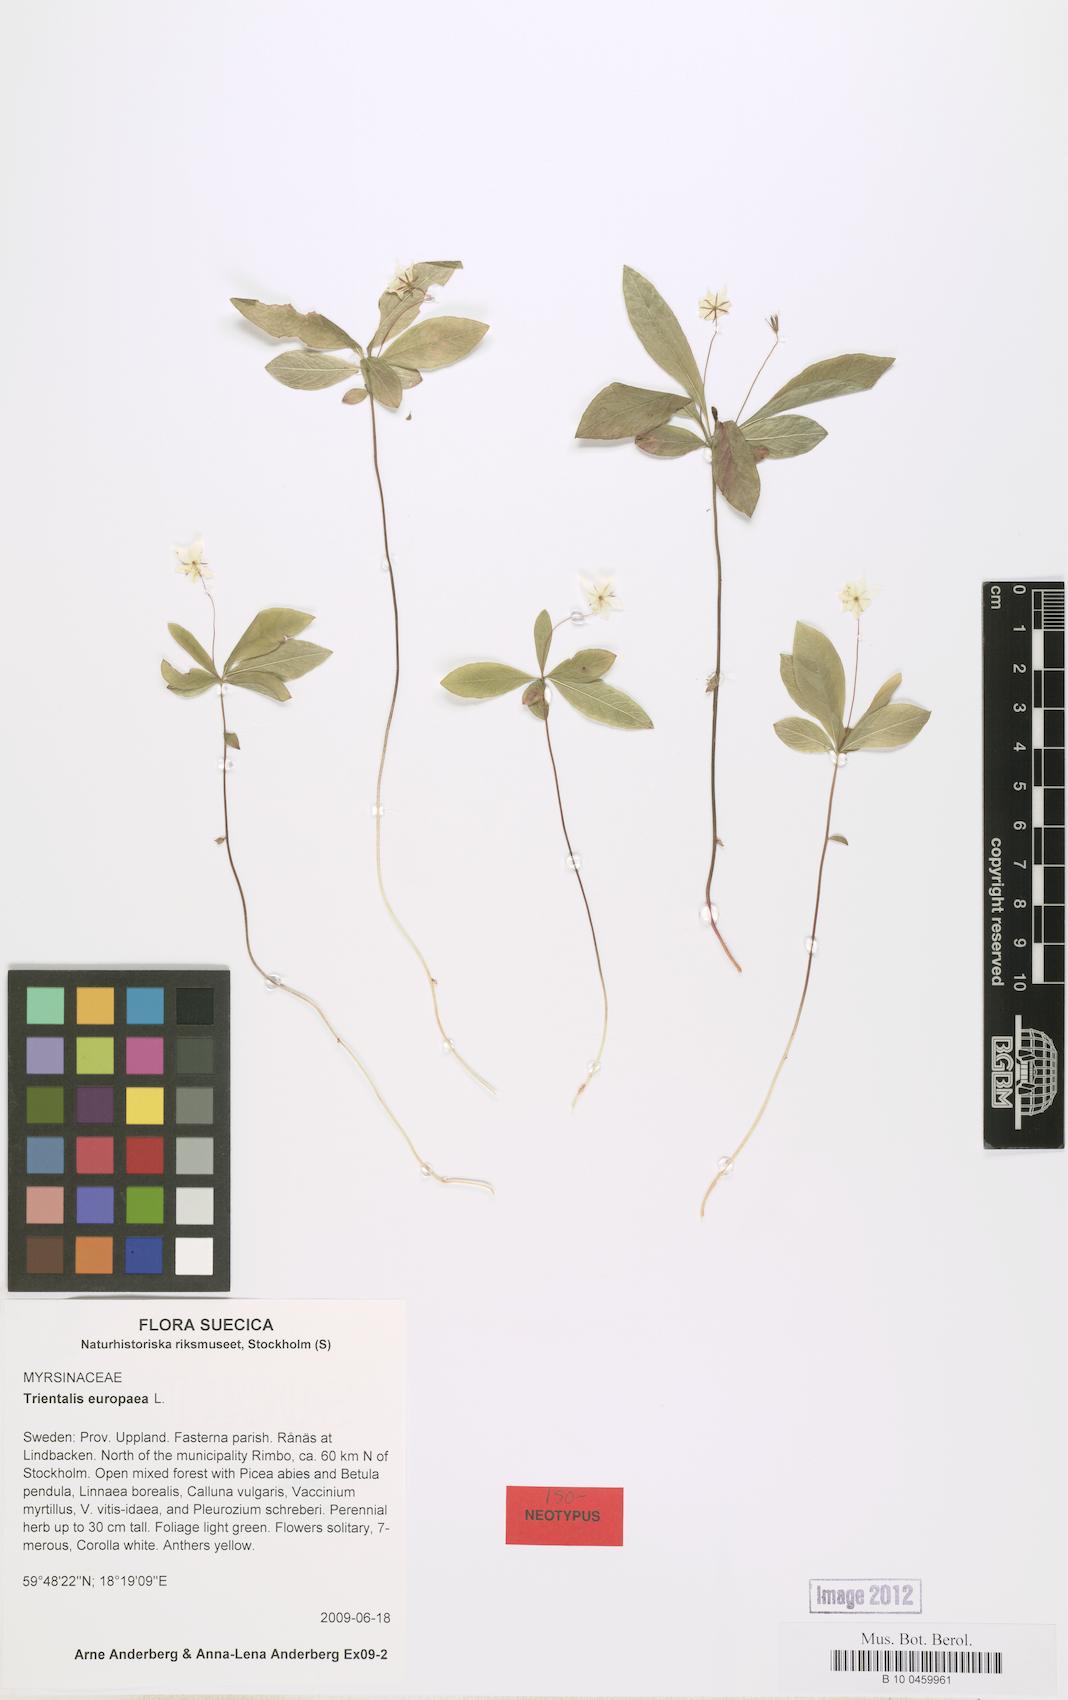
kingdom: Plantae
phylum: Tracheophyta
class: Magnoliopsida
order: Ericales
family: Primulaceae
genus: Lysimachia
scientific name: Lysimachia europaea
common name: Arctic starflower
